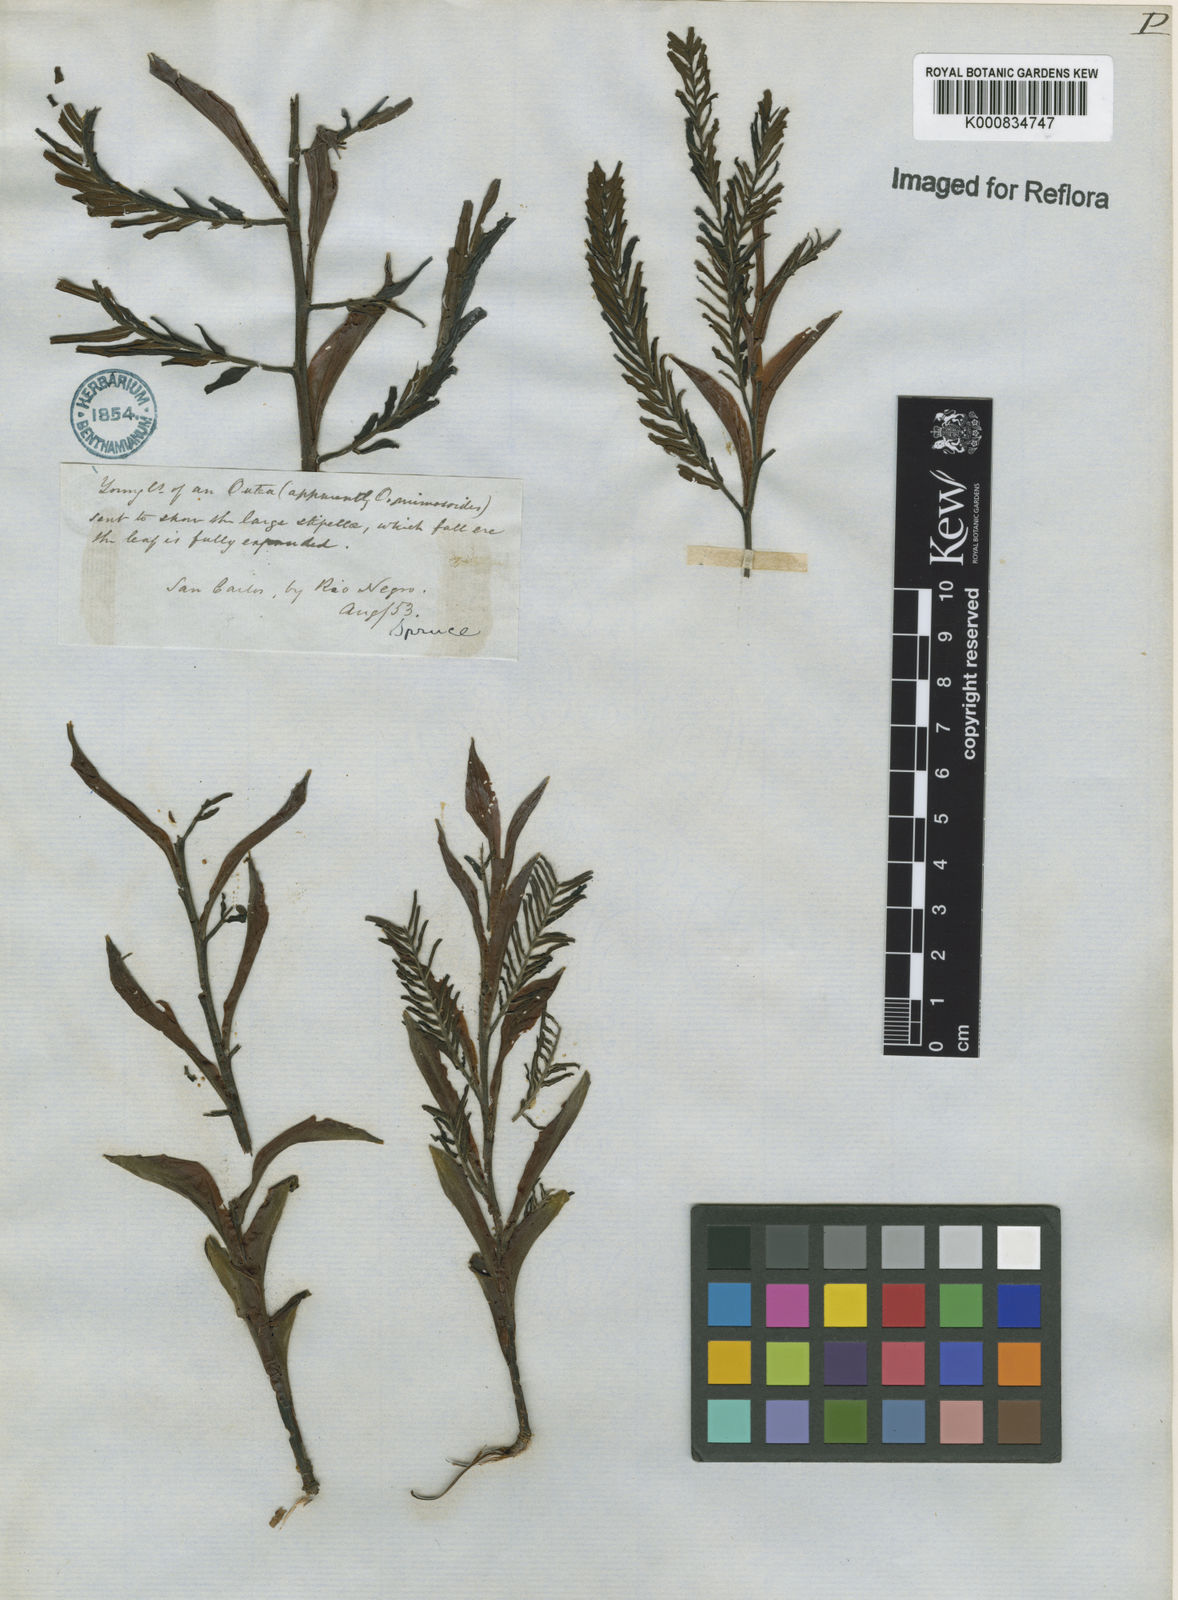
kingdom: Plantae
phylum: Tracheophyta
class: Magnoliopsida
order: Fabales
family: Fabaceae
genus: Macrolobium
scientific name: Macrolobium acaciifolium
